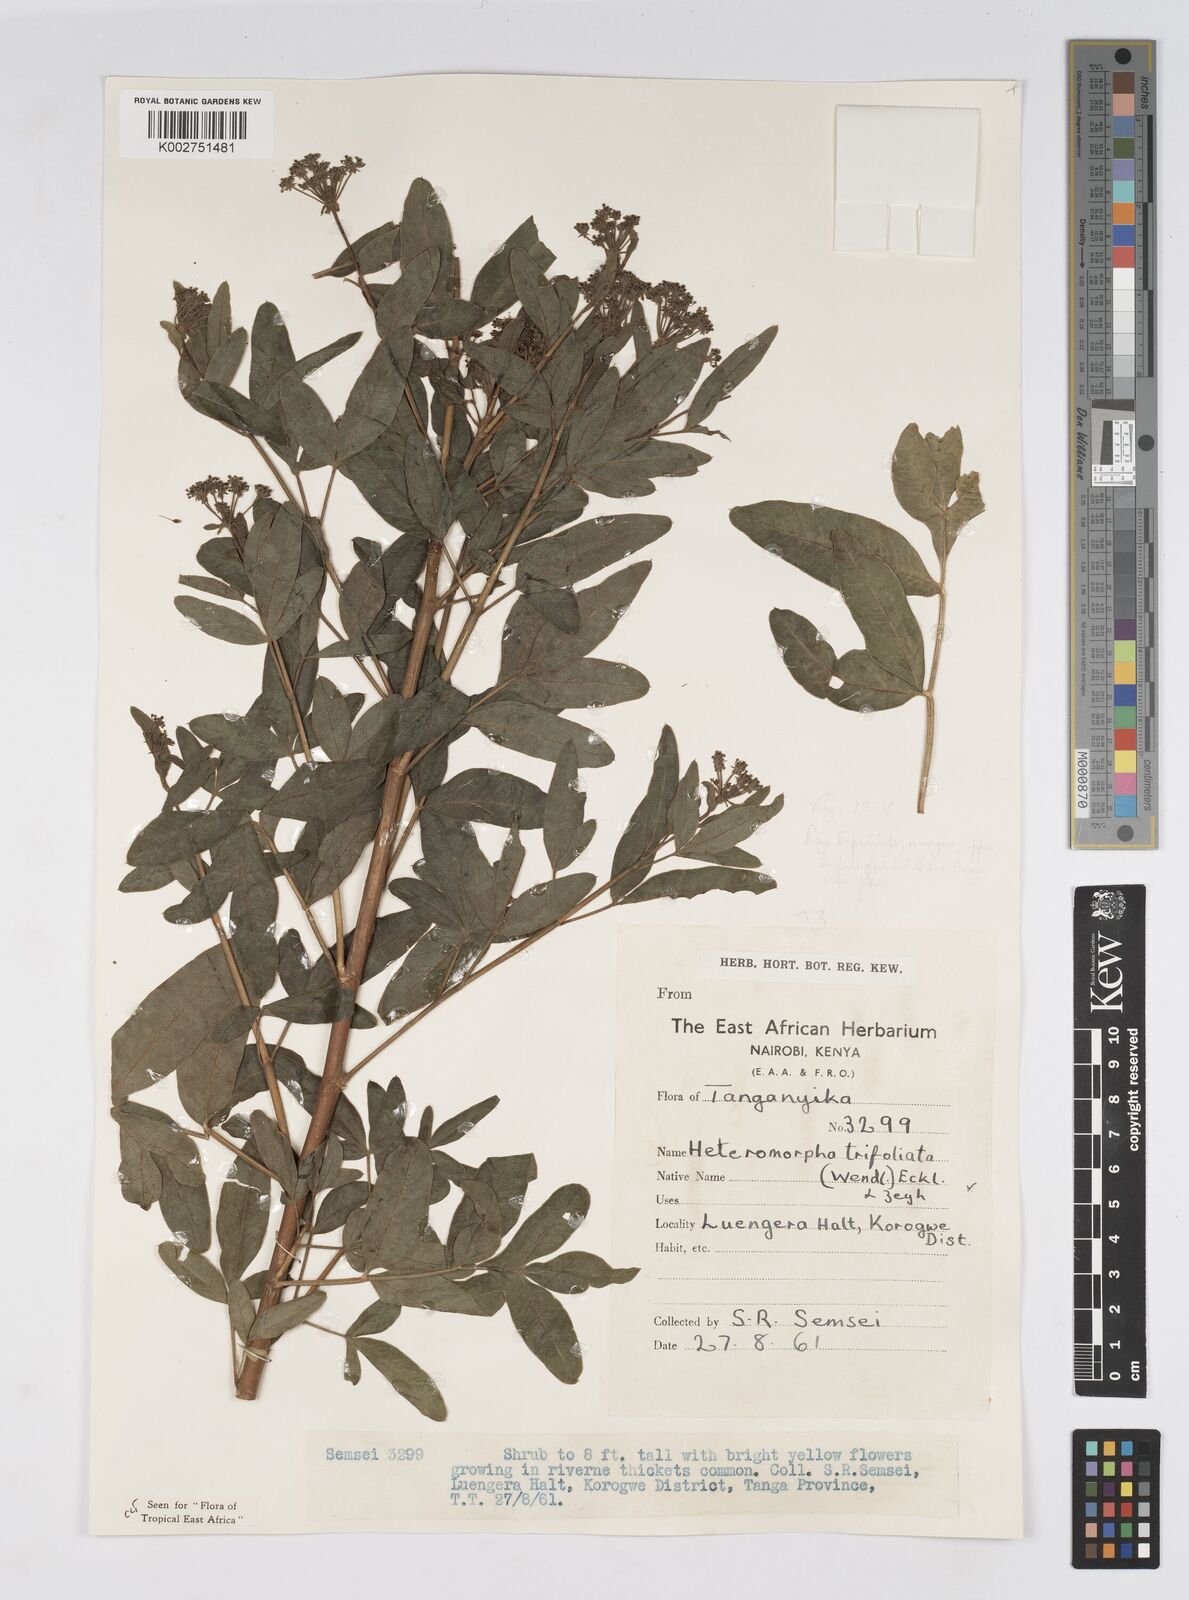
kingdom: Plantae
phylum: Tracheophyta
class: Magnoliopsida
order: Apiales
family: Apiaceae
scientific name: Apiaceae
